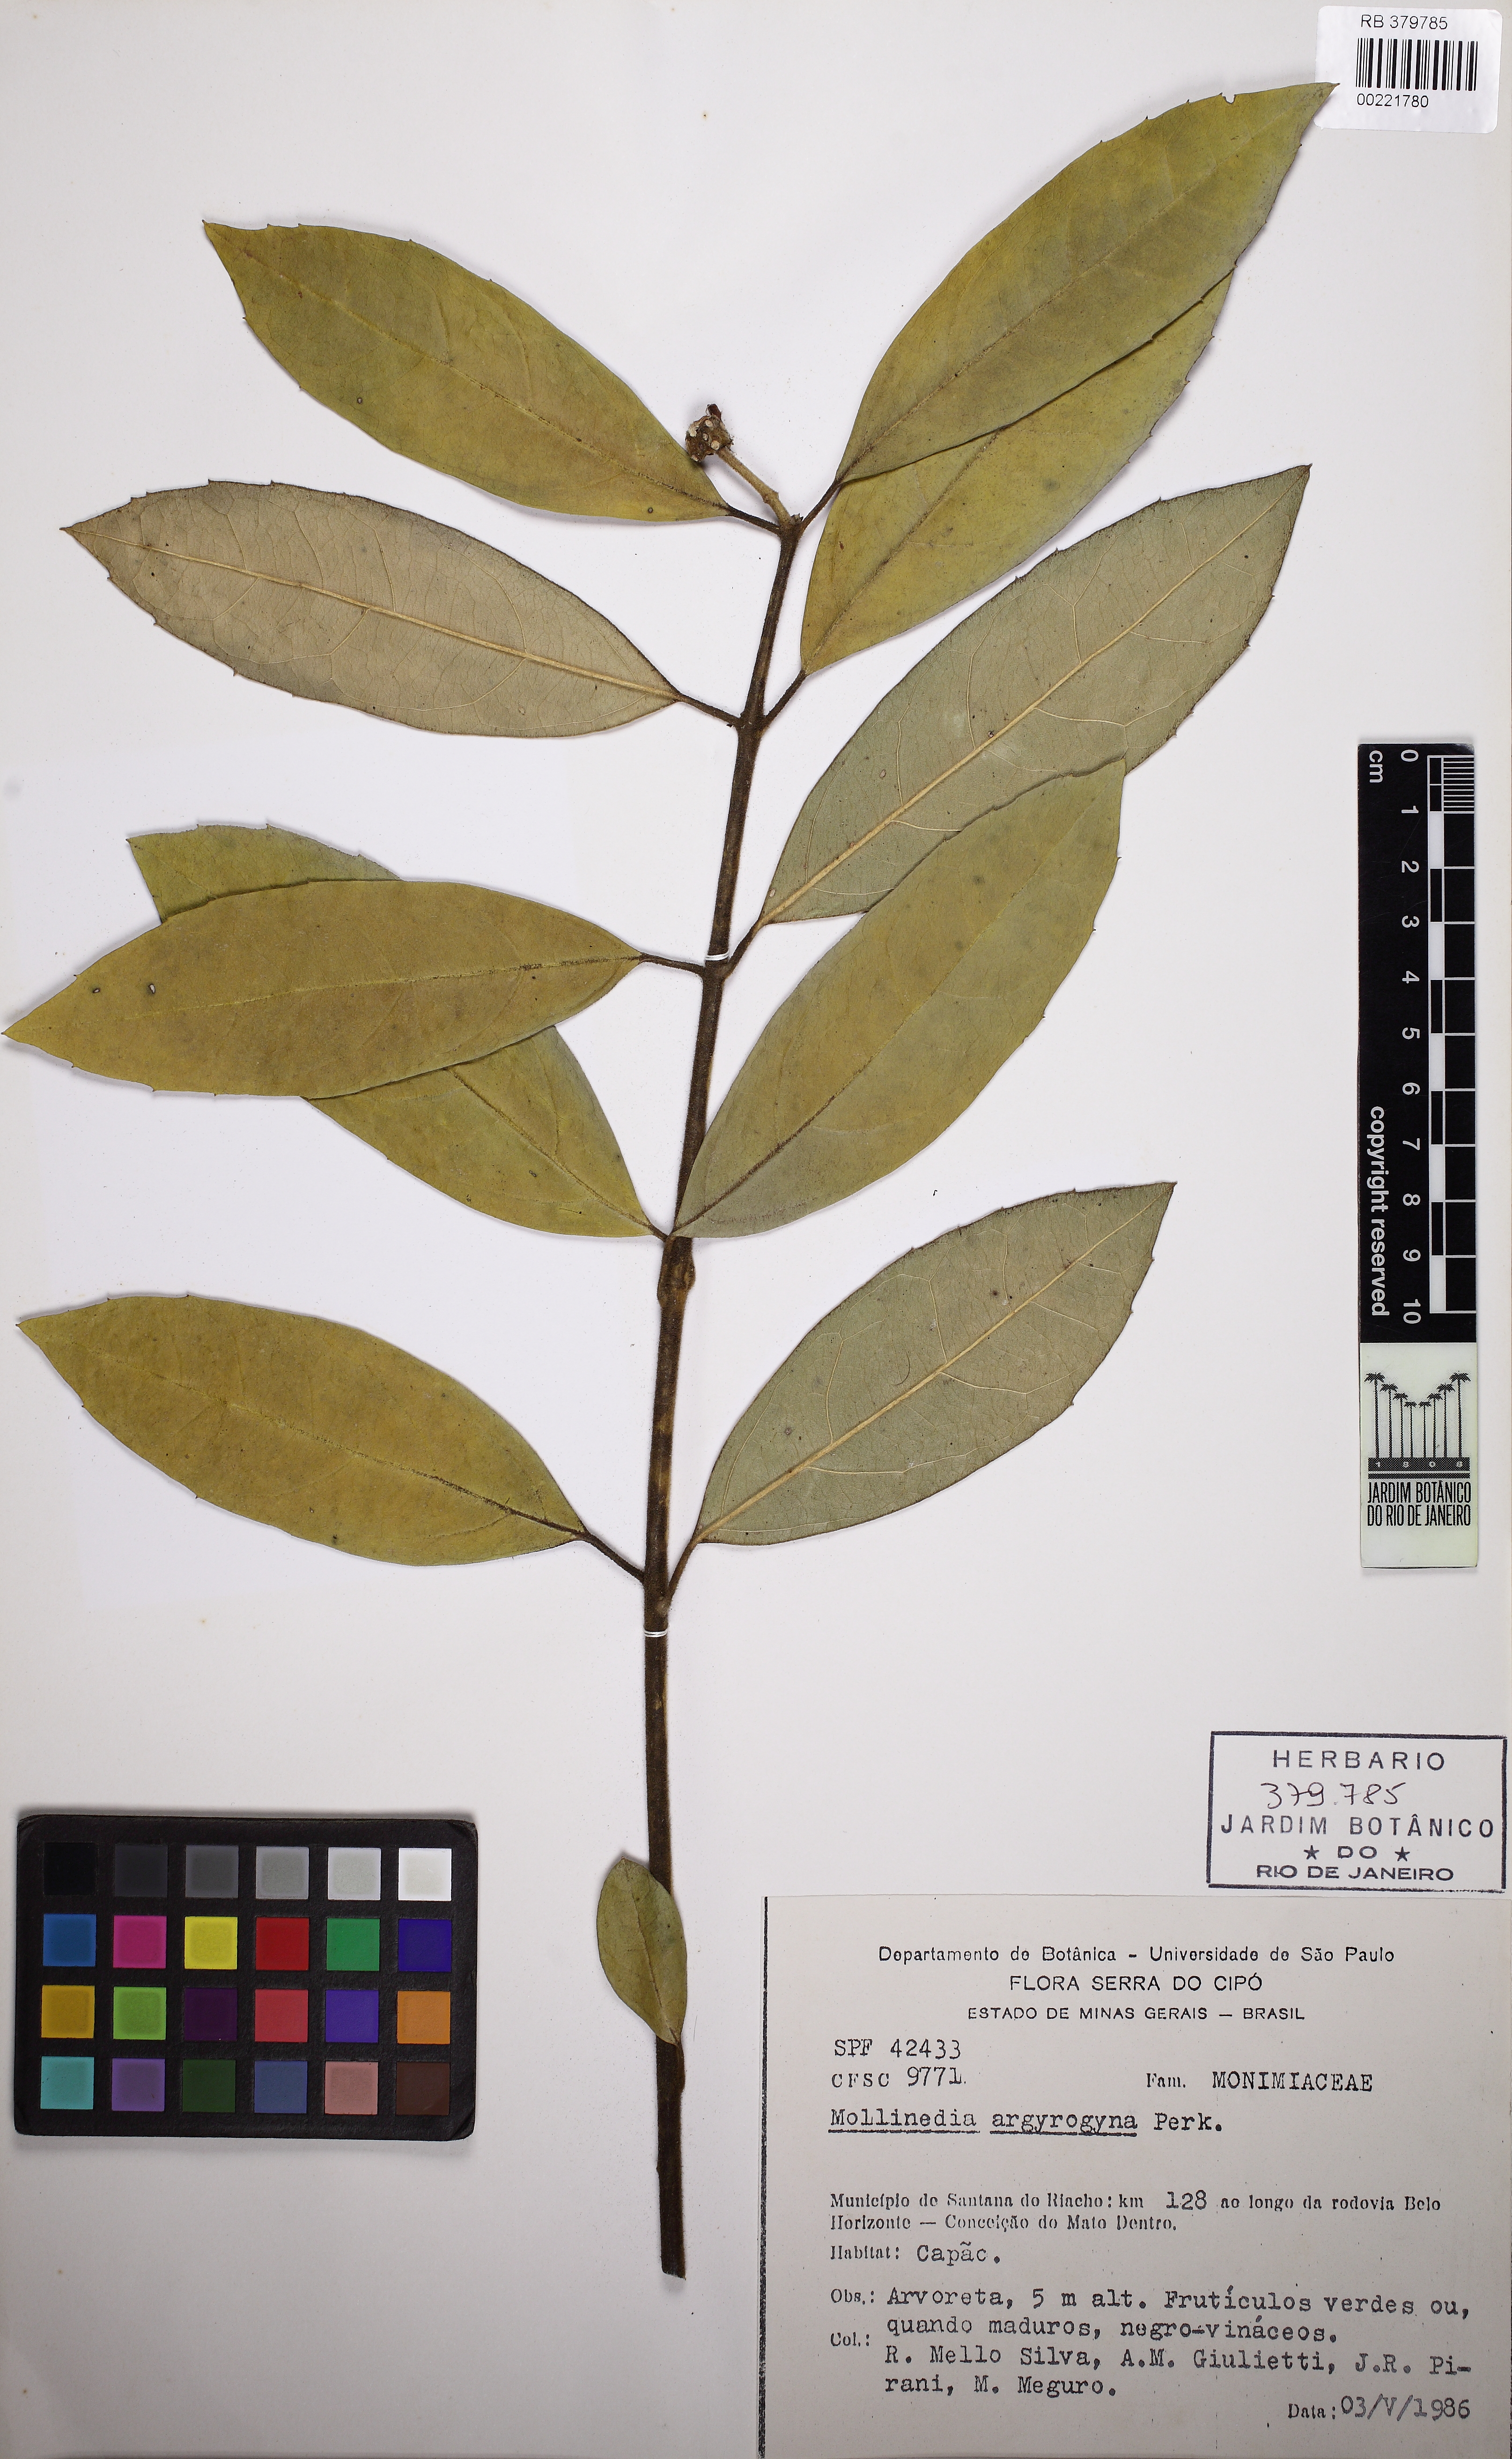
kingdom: Plantae
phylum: Tracheophyta
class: Magnoliopsida
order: Laurales
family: Monimiaceae
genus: Mollinedia
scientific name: Mollinedia argyrogyna
